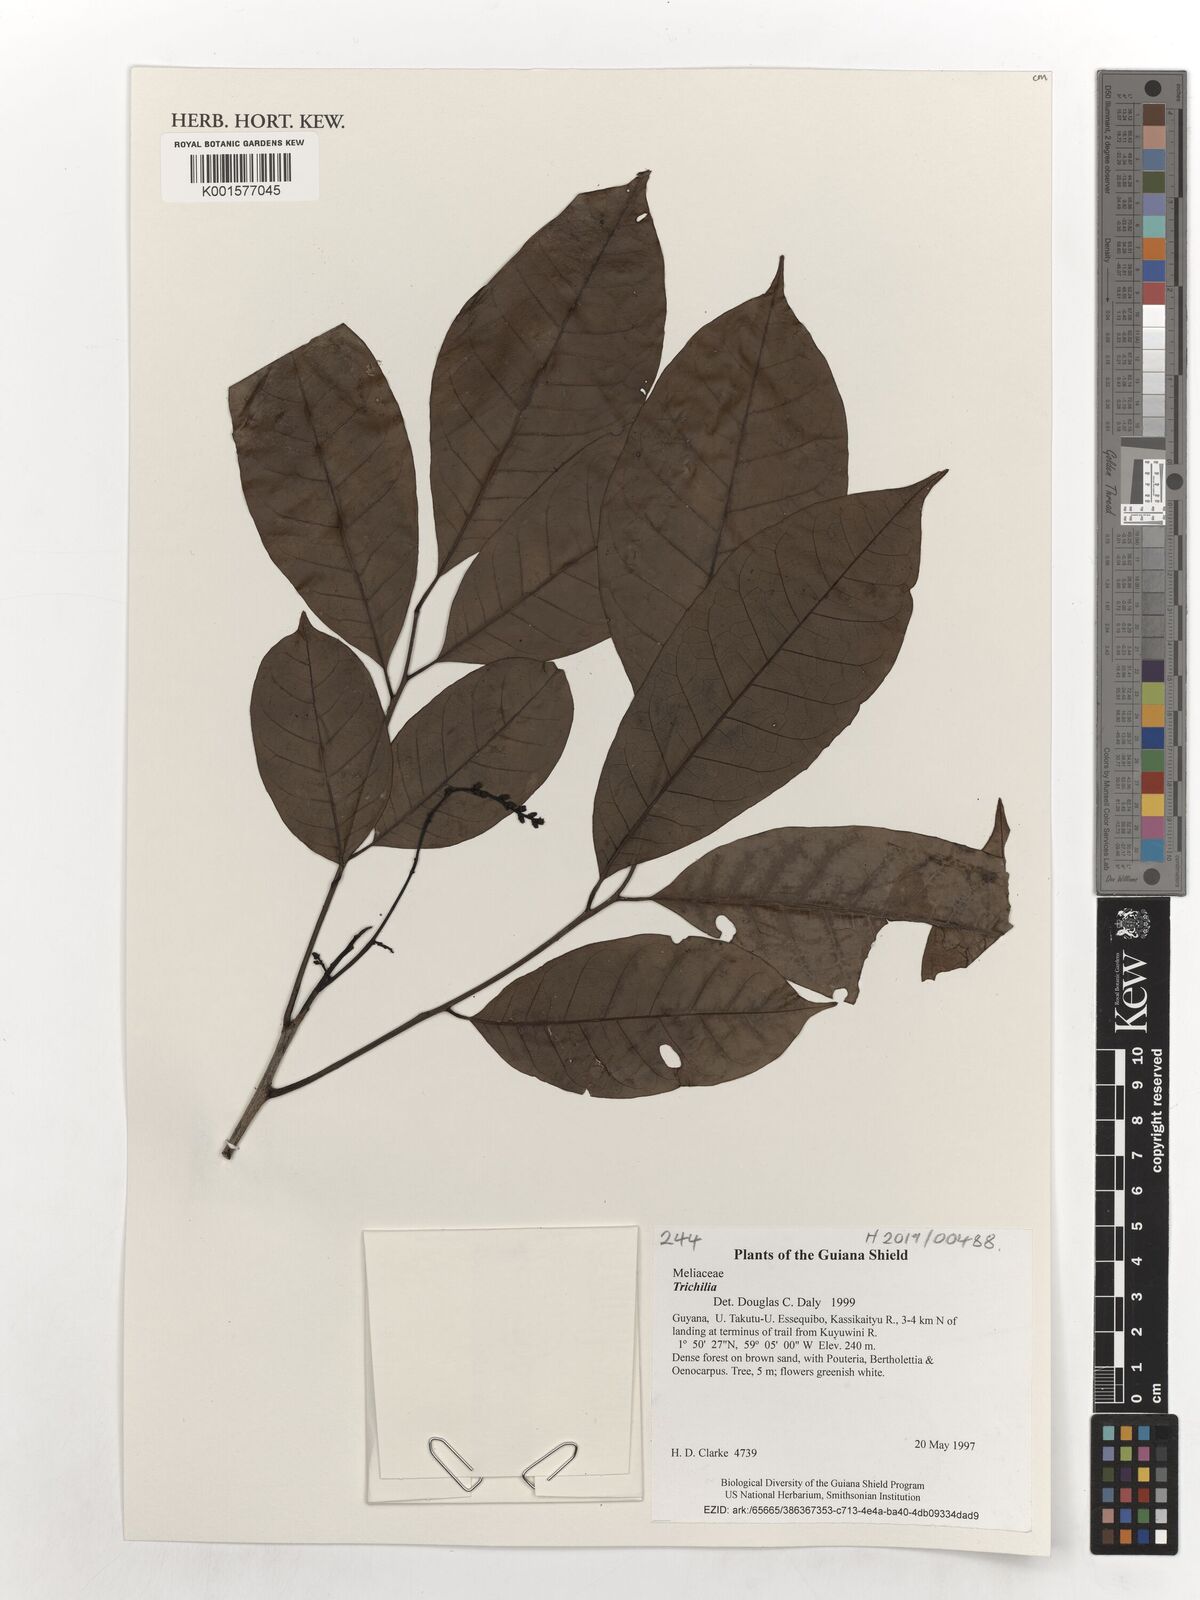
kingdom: Plantae
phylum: Tracheophyta
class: Magnoliopsida
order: Sapindales
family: Meliaceae
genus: Trichilia
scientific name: Trichilia
